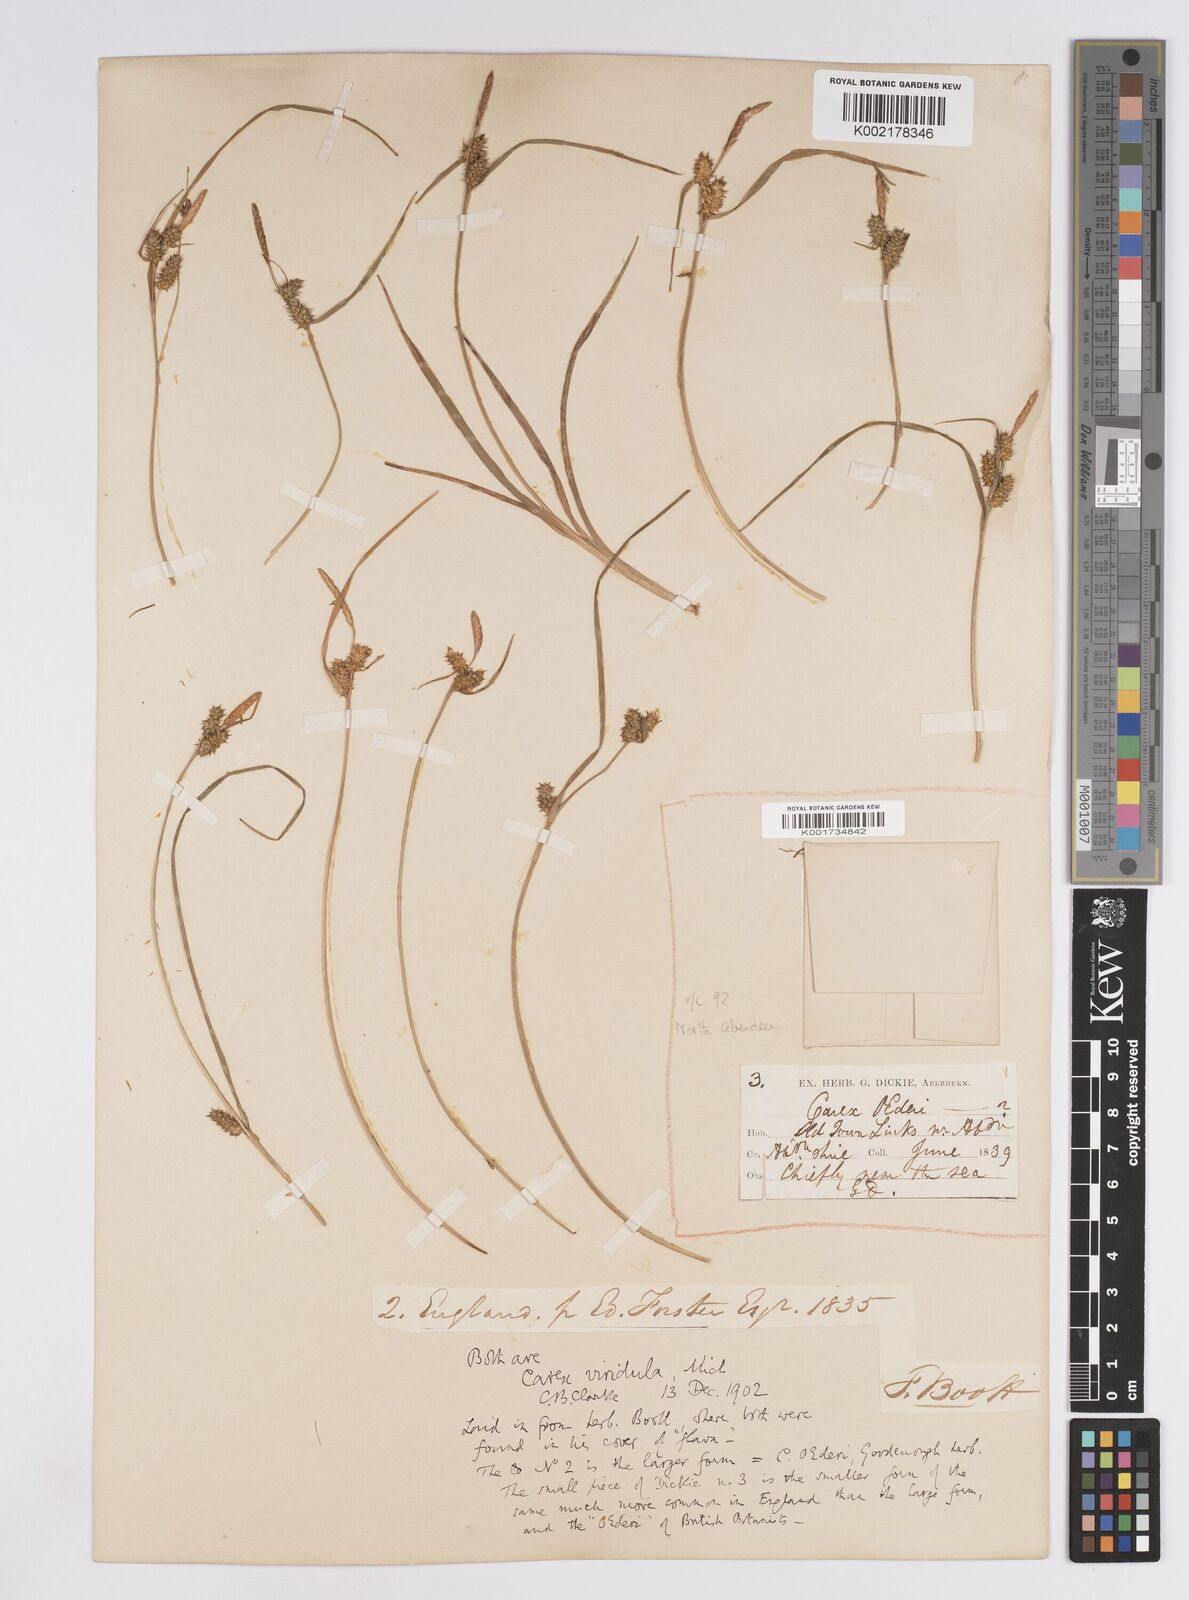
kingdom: Plantae
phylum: Tracheophyta
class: Liliopsida
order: Poales
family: Cyperaceae
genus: Carex
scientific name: Carex demissa
